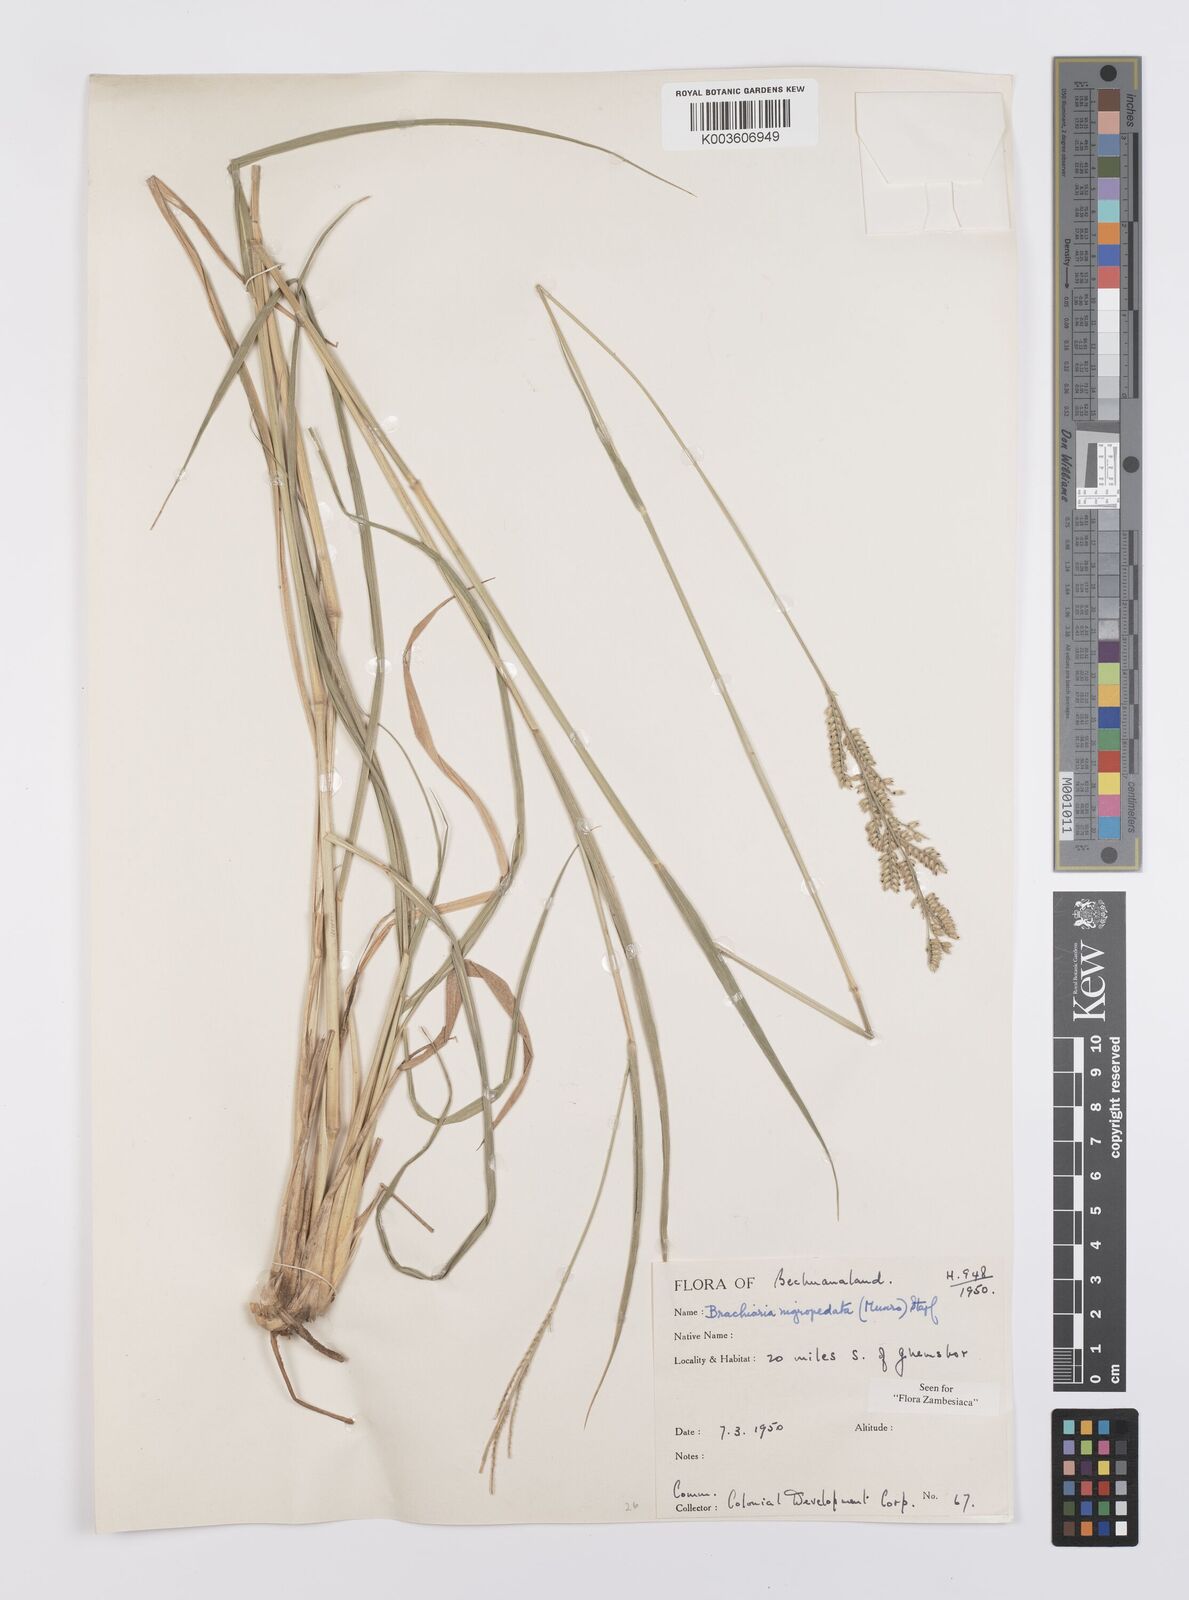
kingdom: Plantae
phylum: Tracheophyta
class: Liliopsida
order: Poales
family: Poaceae
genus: Urochloa
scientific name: Urochloa nigropedata
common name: Spotted signal grass
